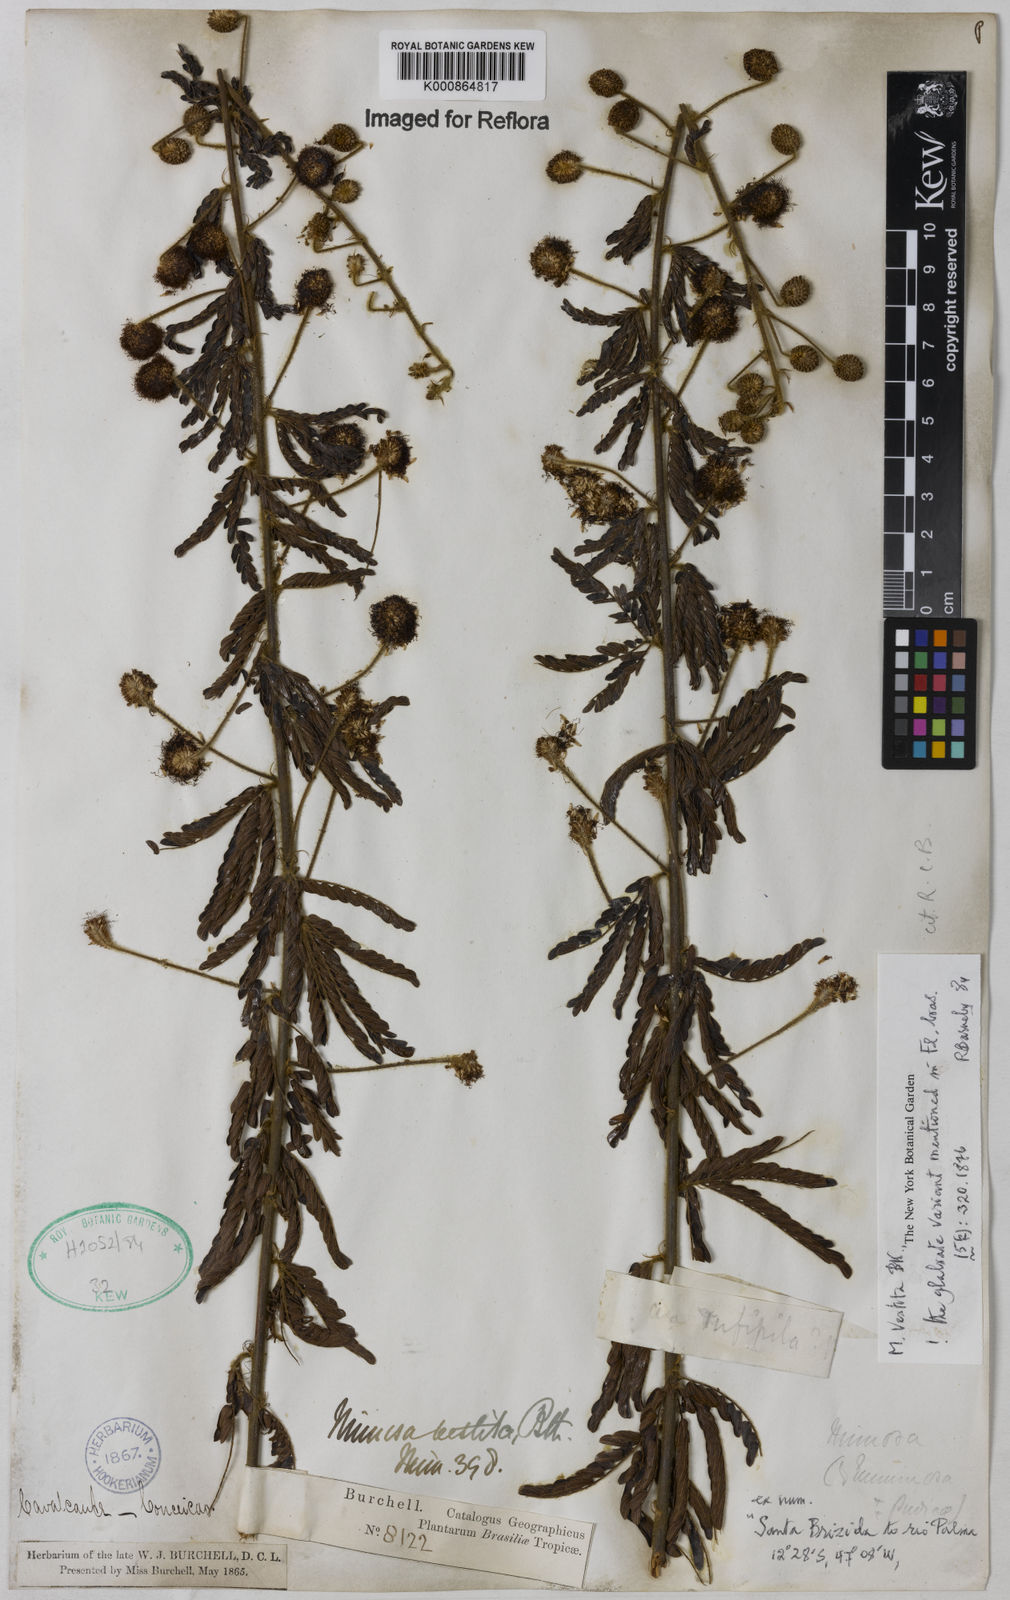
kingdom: Plantae
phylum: Tracheophyta
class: Magnoliopsida
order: Fabales
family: Fabaceae
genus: Mimosa
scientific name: Mimosa vestita
